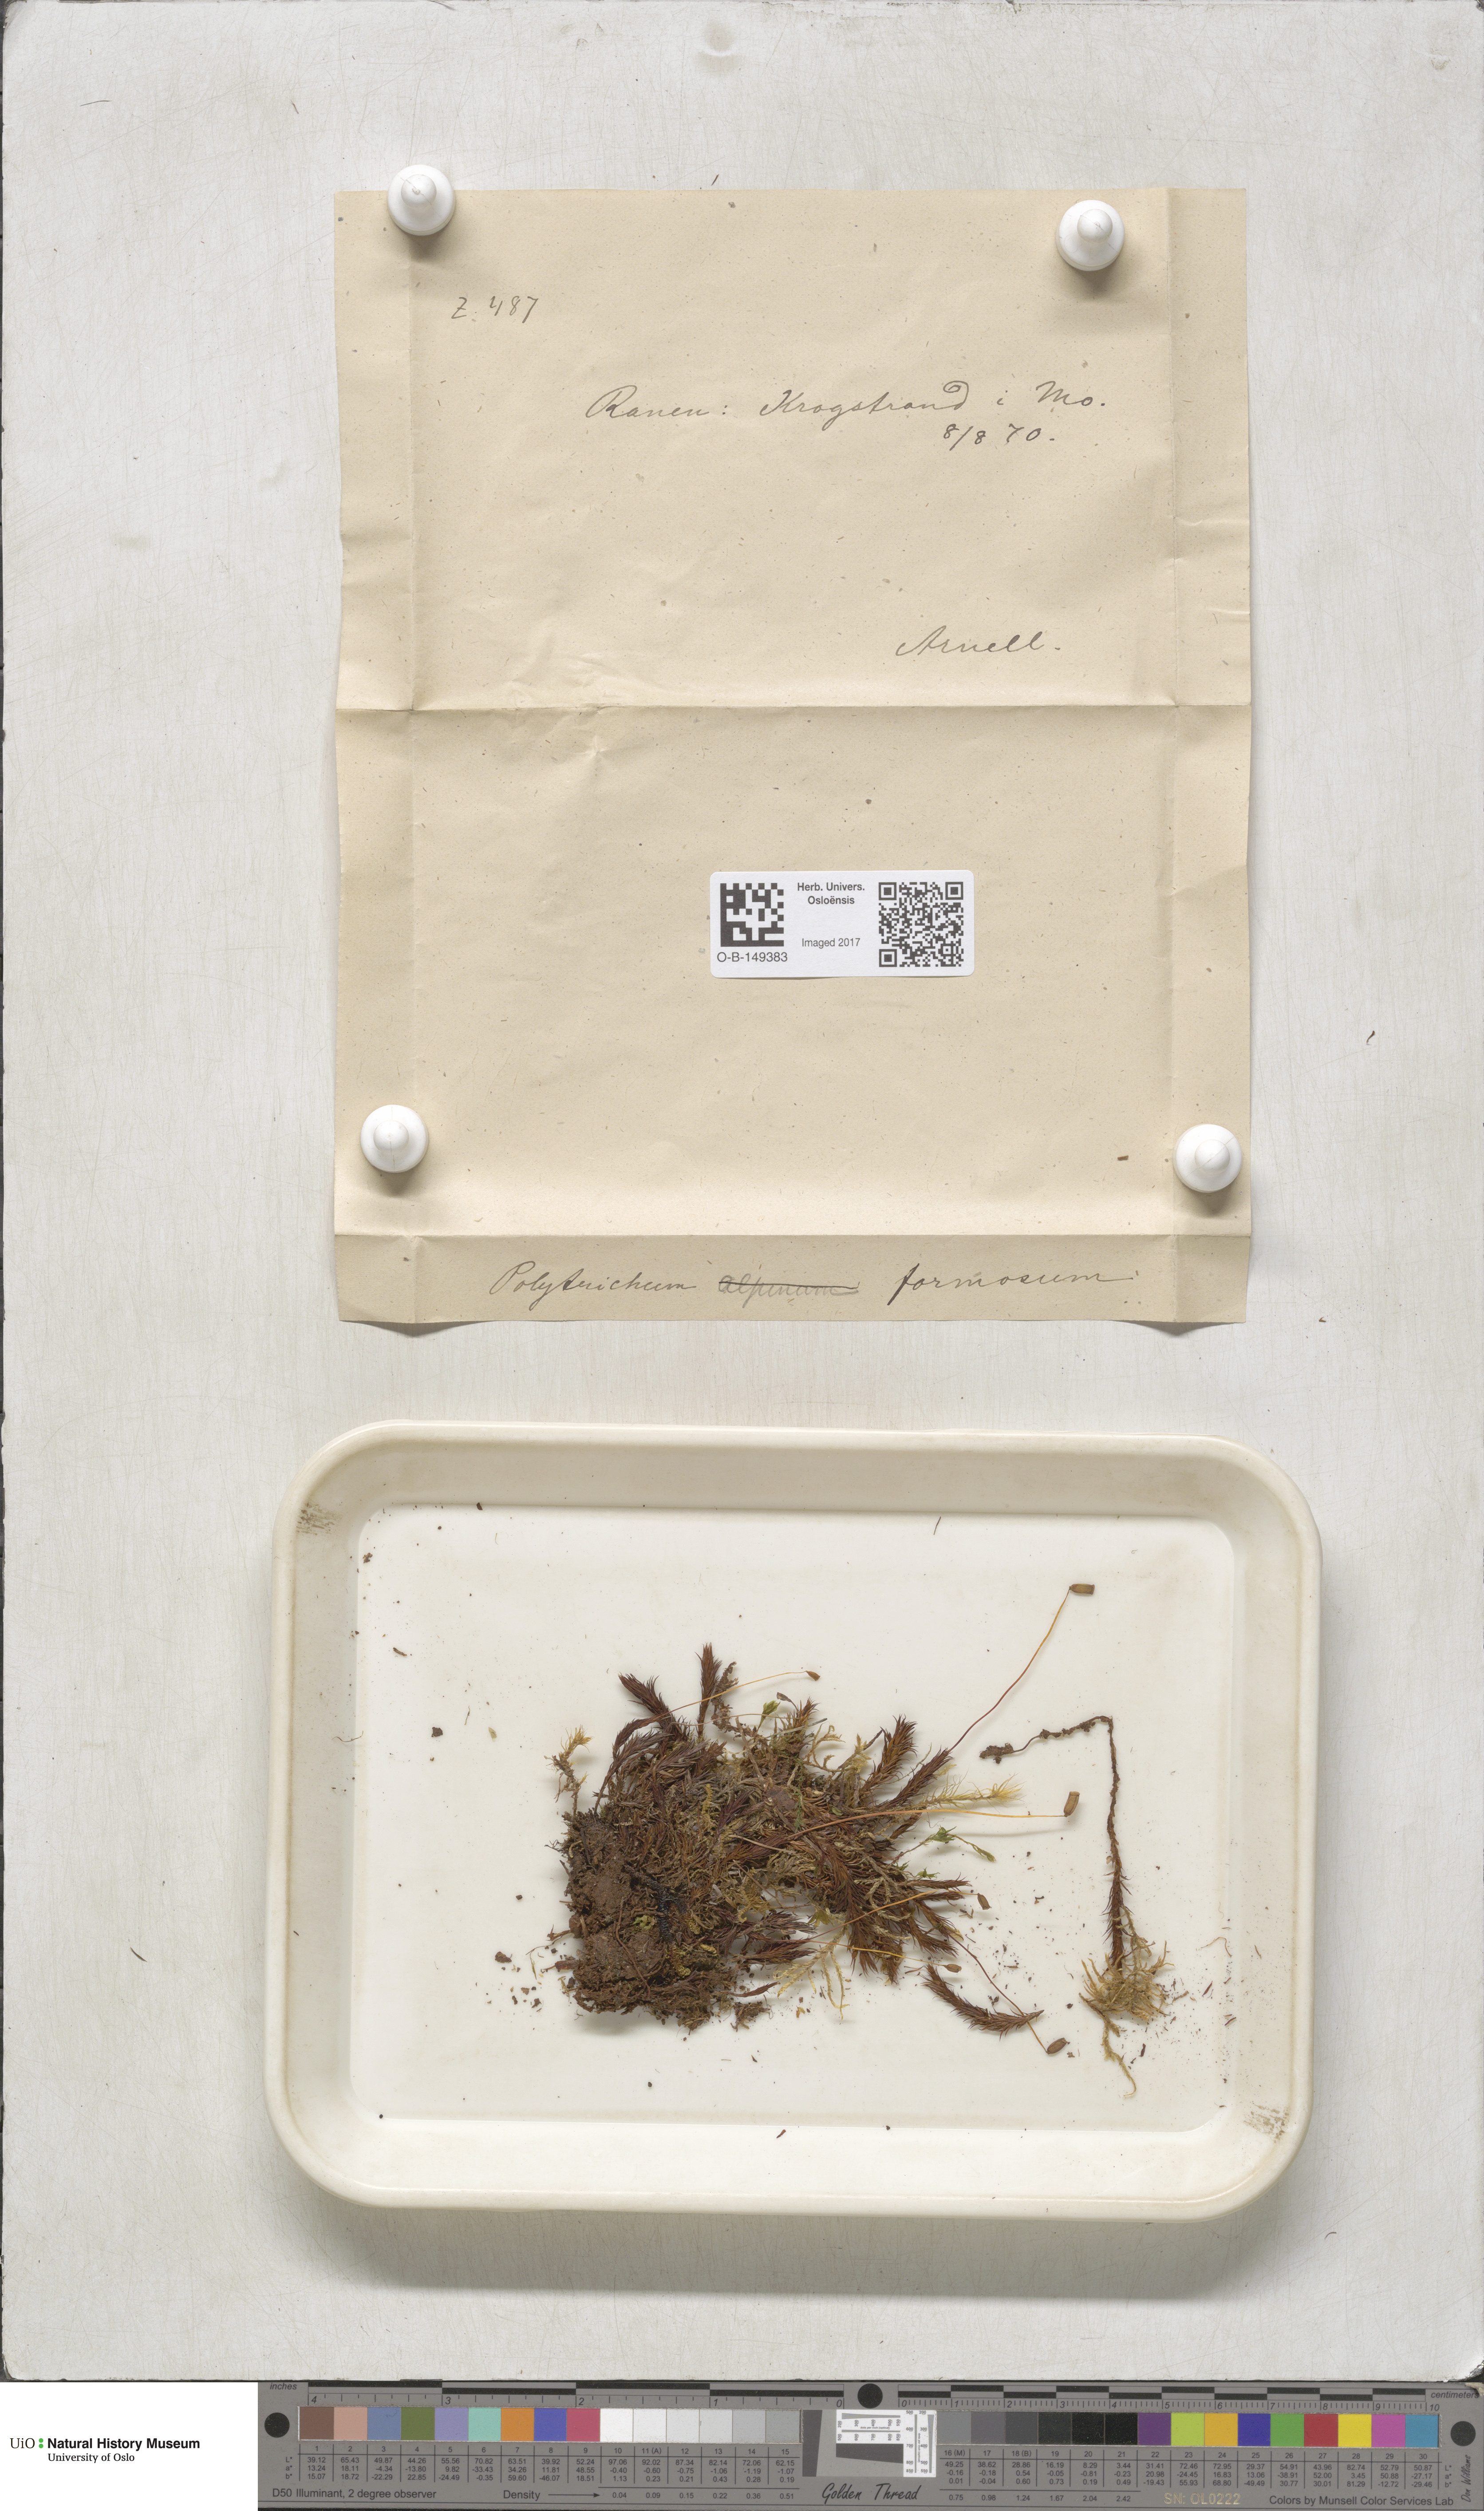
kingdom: Plantae
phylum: Bryophyta
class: Polytrichopsida
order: Polytrichales
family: Polytrichaceae
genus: Polytrichum
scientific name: Polytrichum formosum
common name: Bank haircap moss
